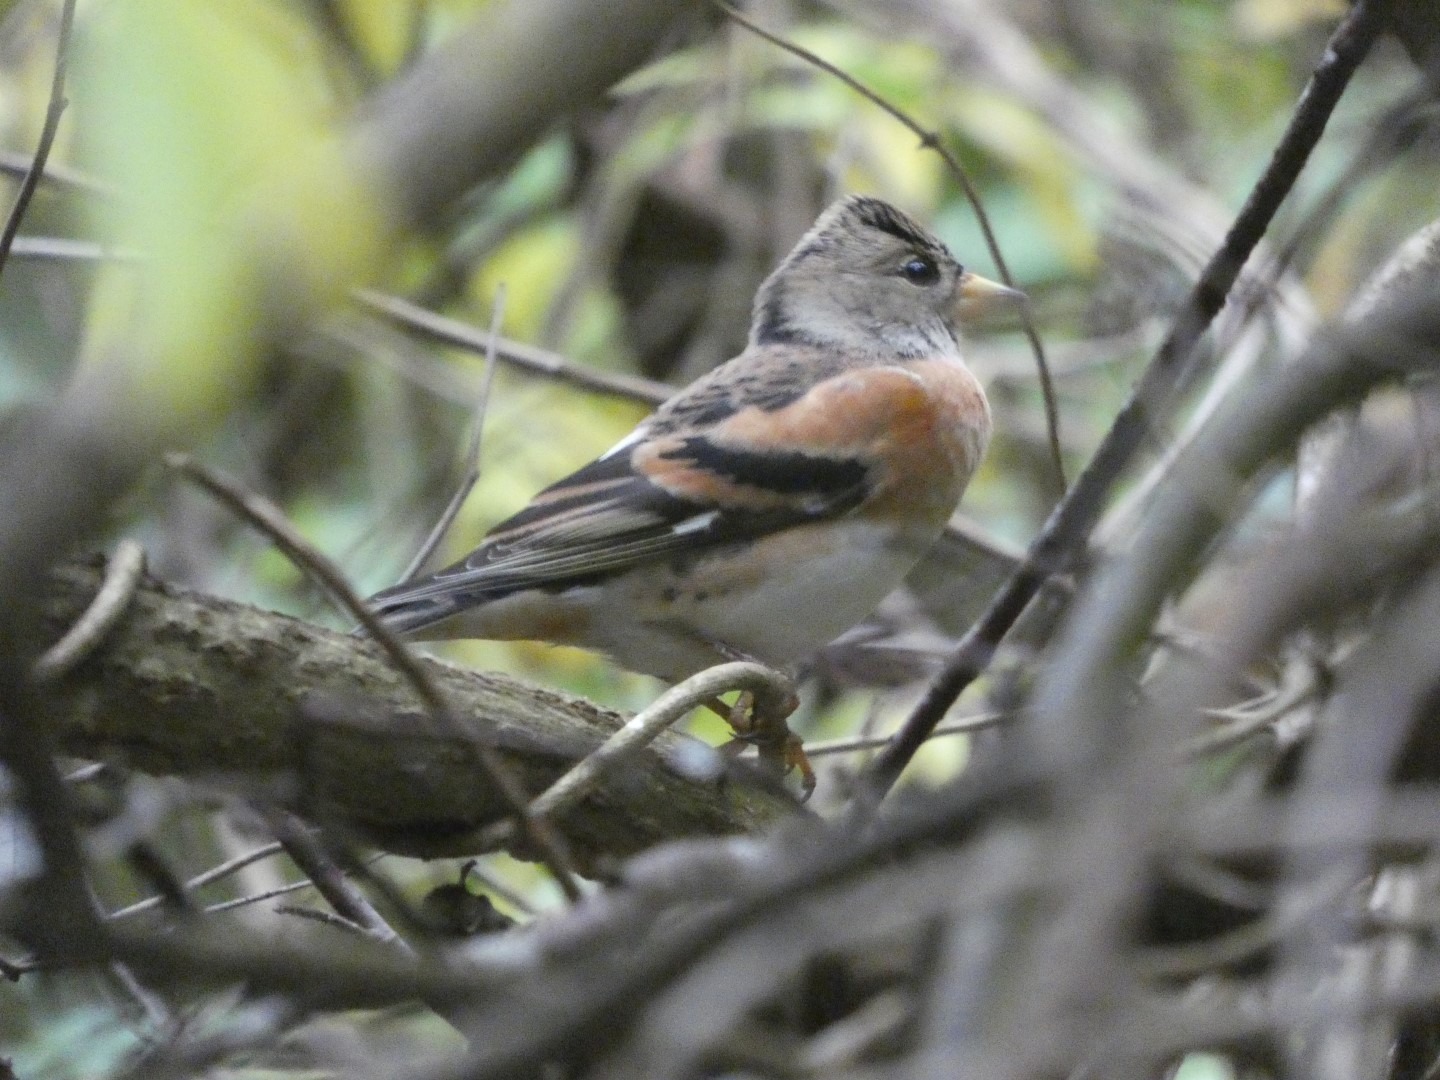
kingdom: Animalia
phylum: Chordata
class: Aves
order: Passeriformes
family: Fringillidae
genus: Fringilla
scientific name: Fringilla montifringilla
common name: Kvækerfinke
